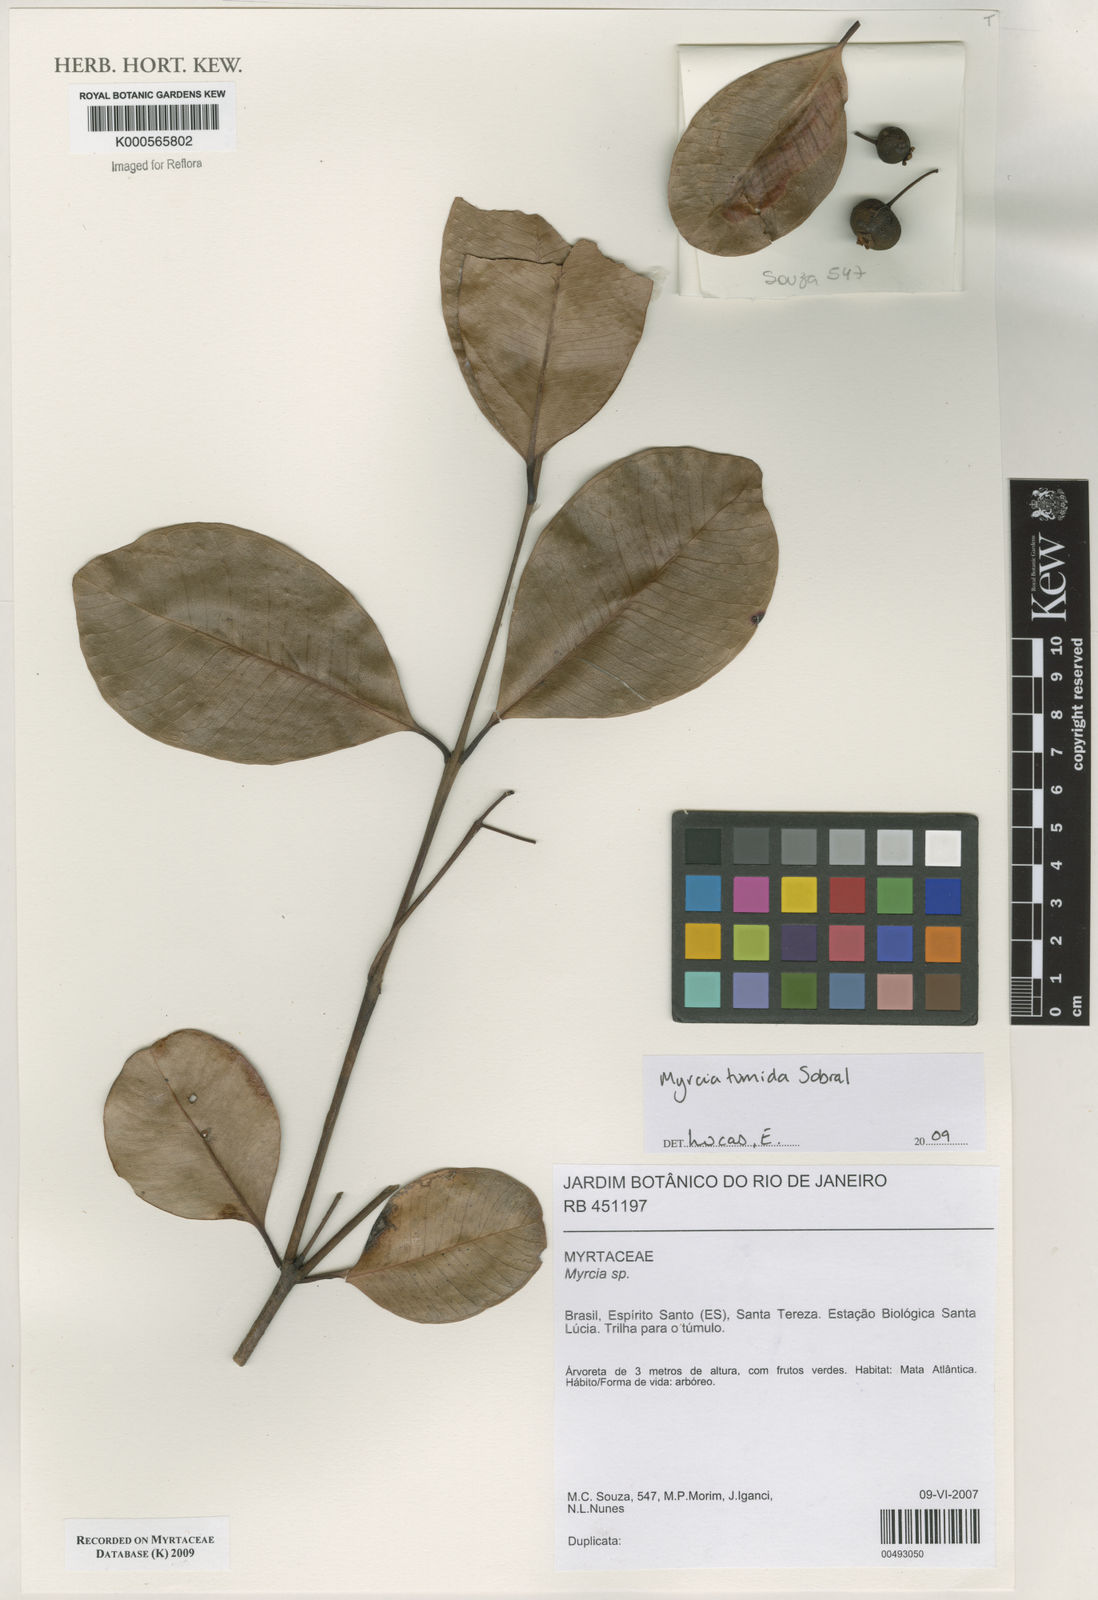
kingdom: Plantae
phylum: Tracheophyta
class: Magnoliopsida
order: Myrtales
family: Myrtaceae
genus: Myrcia
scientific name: Myrcia tumida
